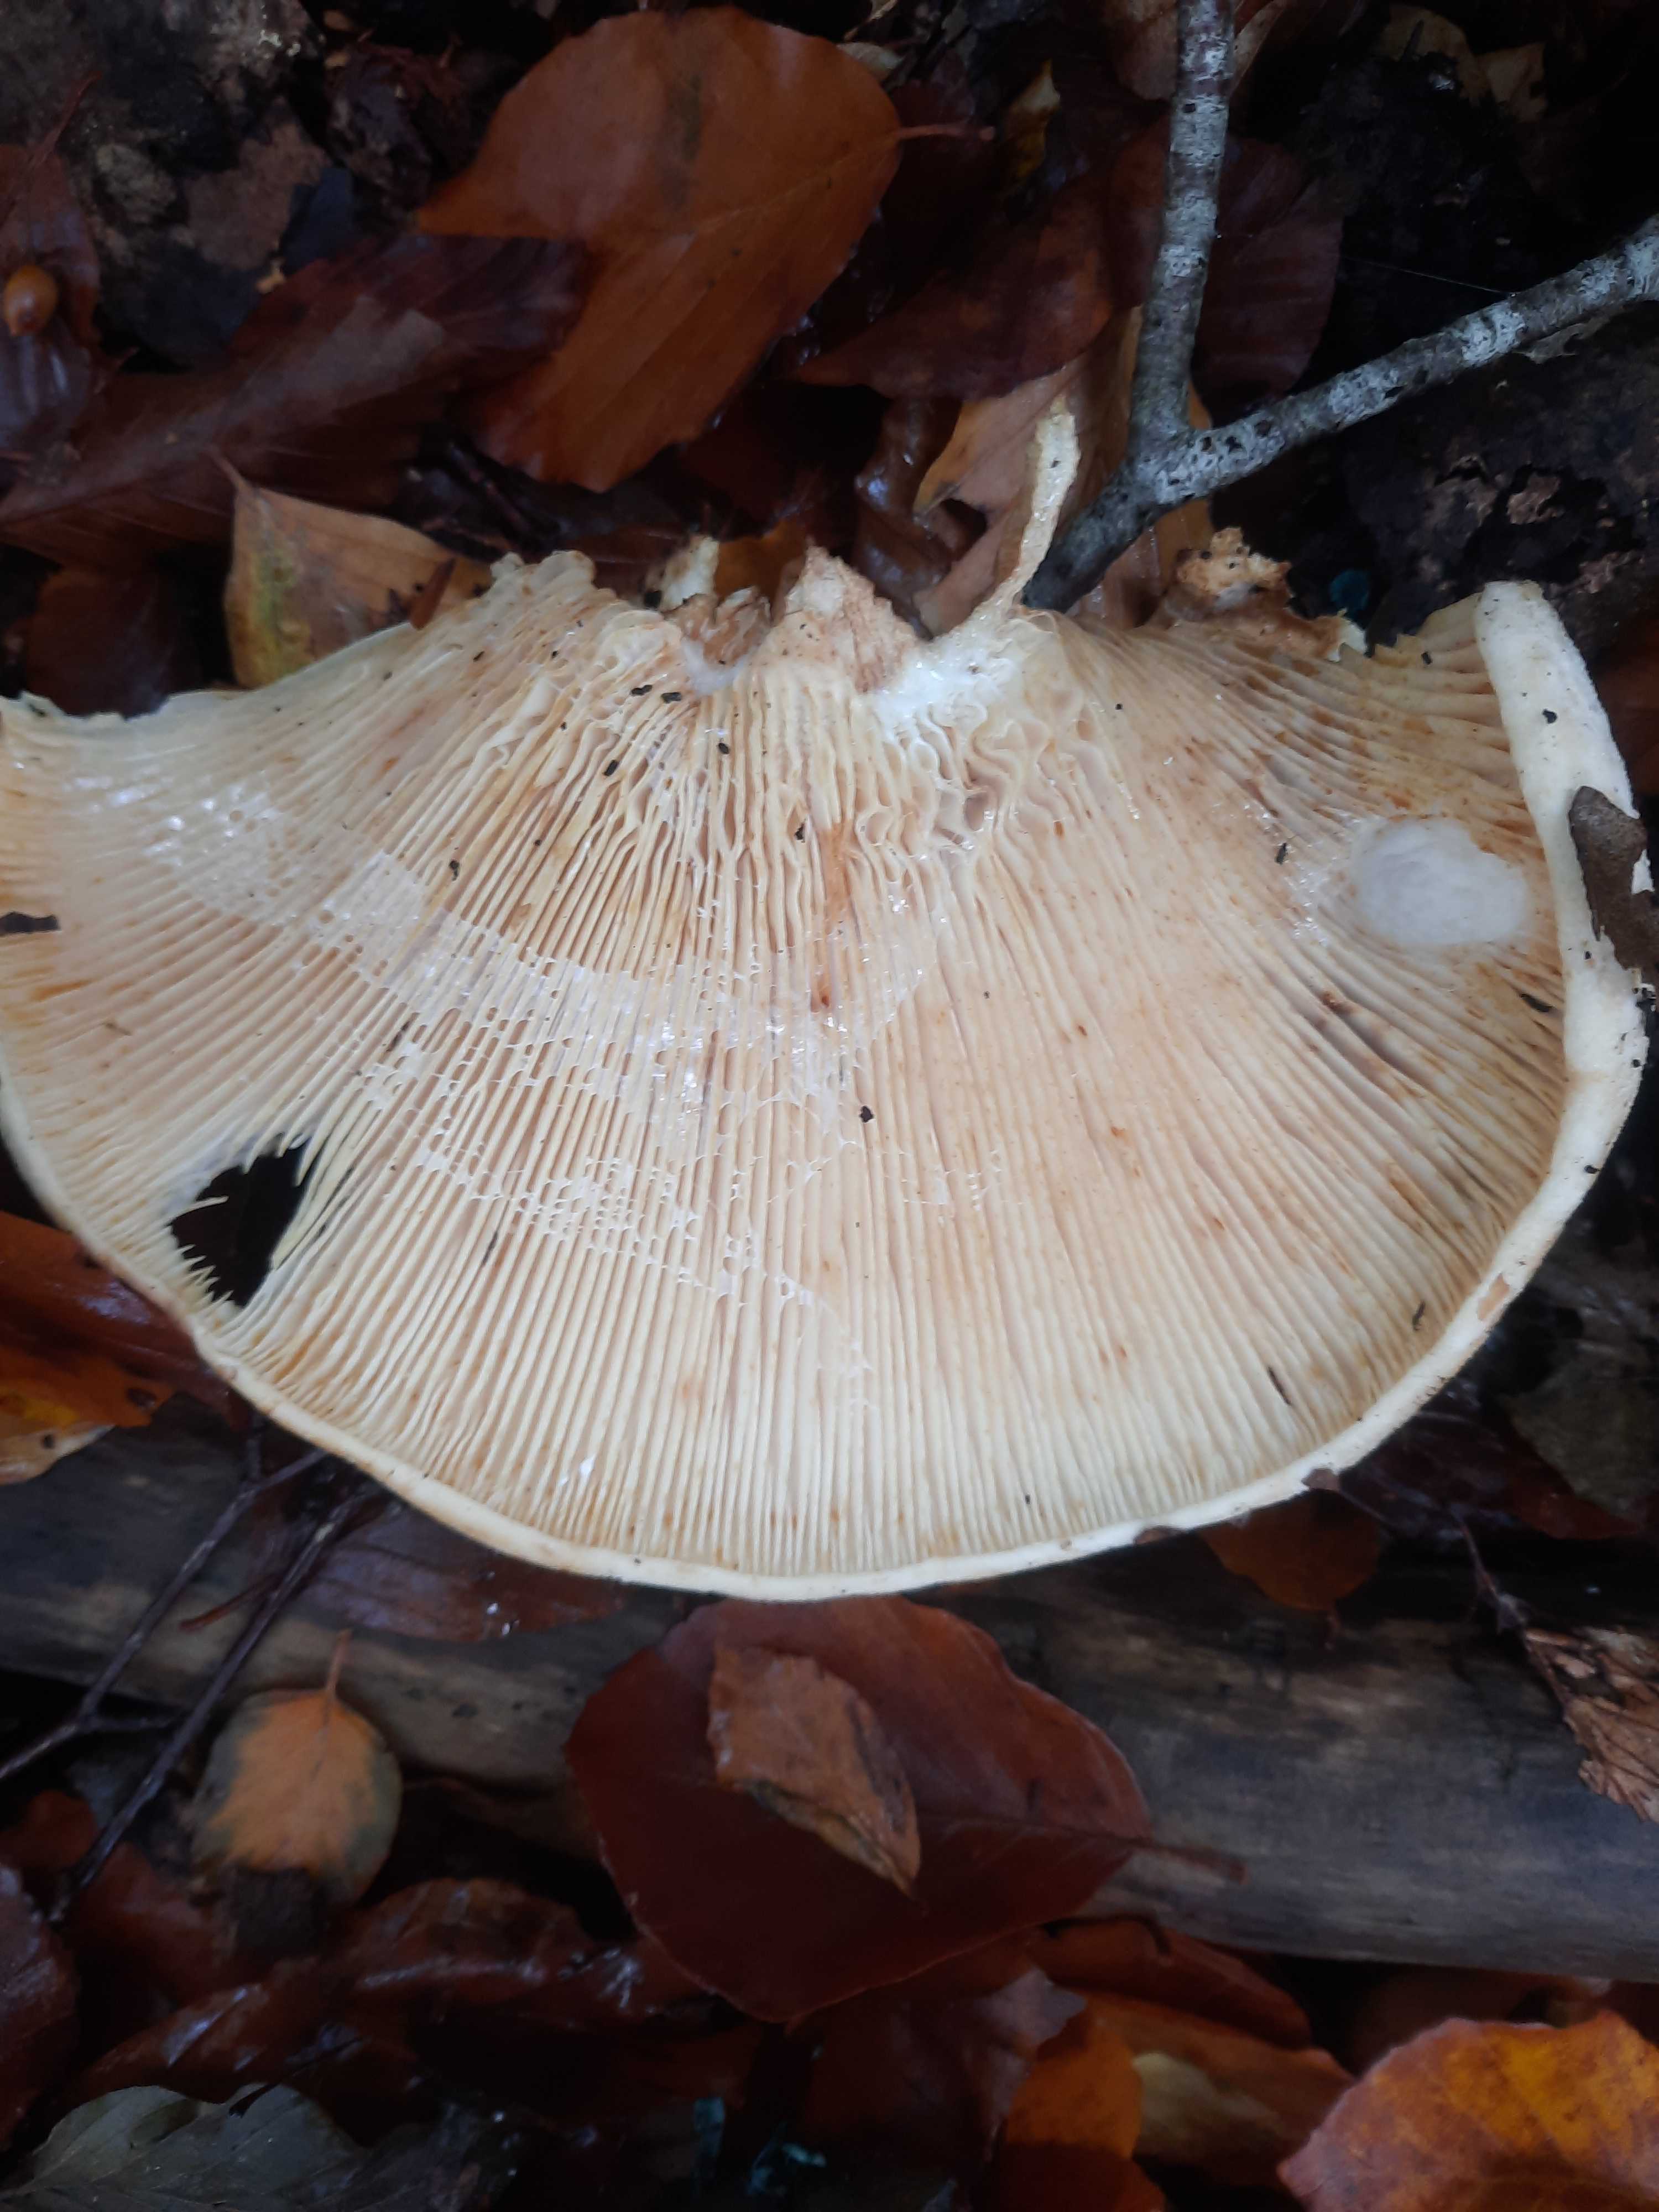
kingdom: Fungi
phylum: Basidiomycota
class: Agaricomycetes
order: Russulales
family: Russulaceae
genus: Lactifluus
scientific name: Lactifluus vellereus
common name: hvidfiltet mælkehat
